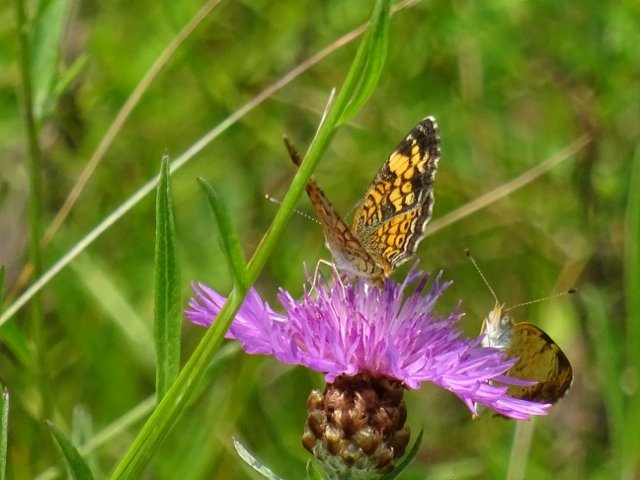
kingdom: Animalia
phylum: Arthropoda
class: Insecta
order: Lepidoptera
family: Nymphalidae
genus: Phyciodes
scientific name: Phyciodes tharos
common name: Northern Crescent
